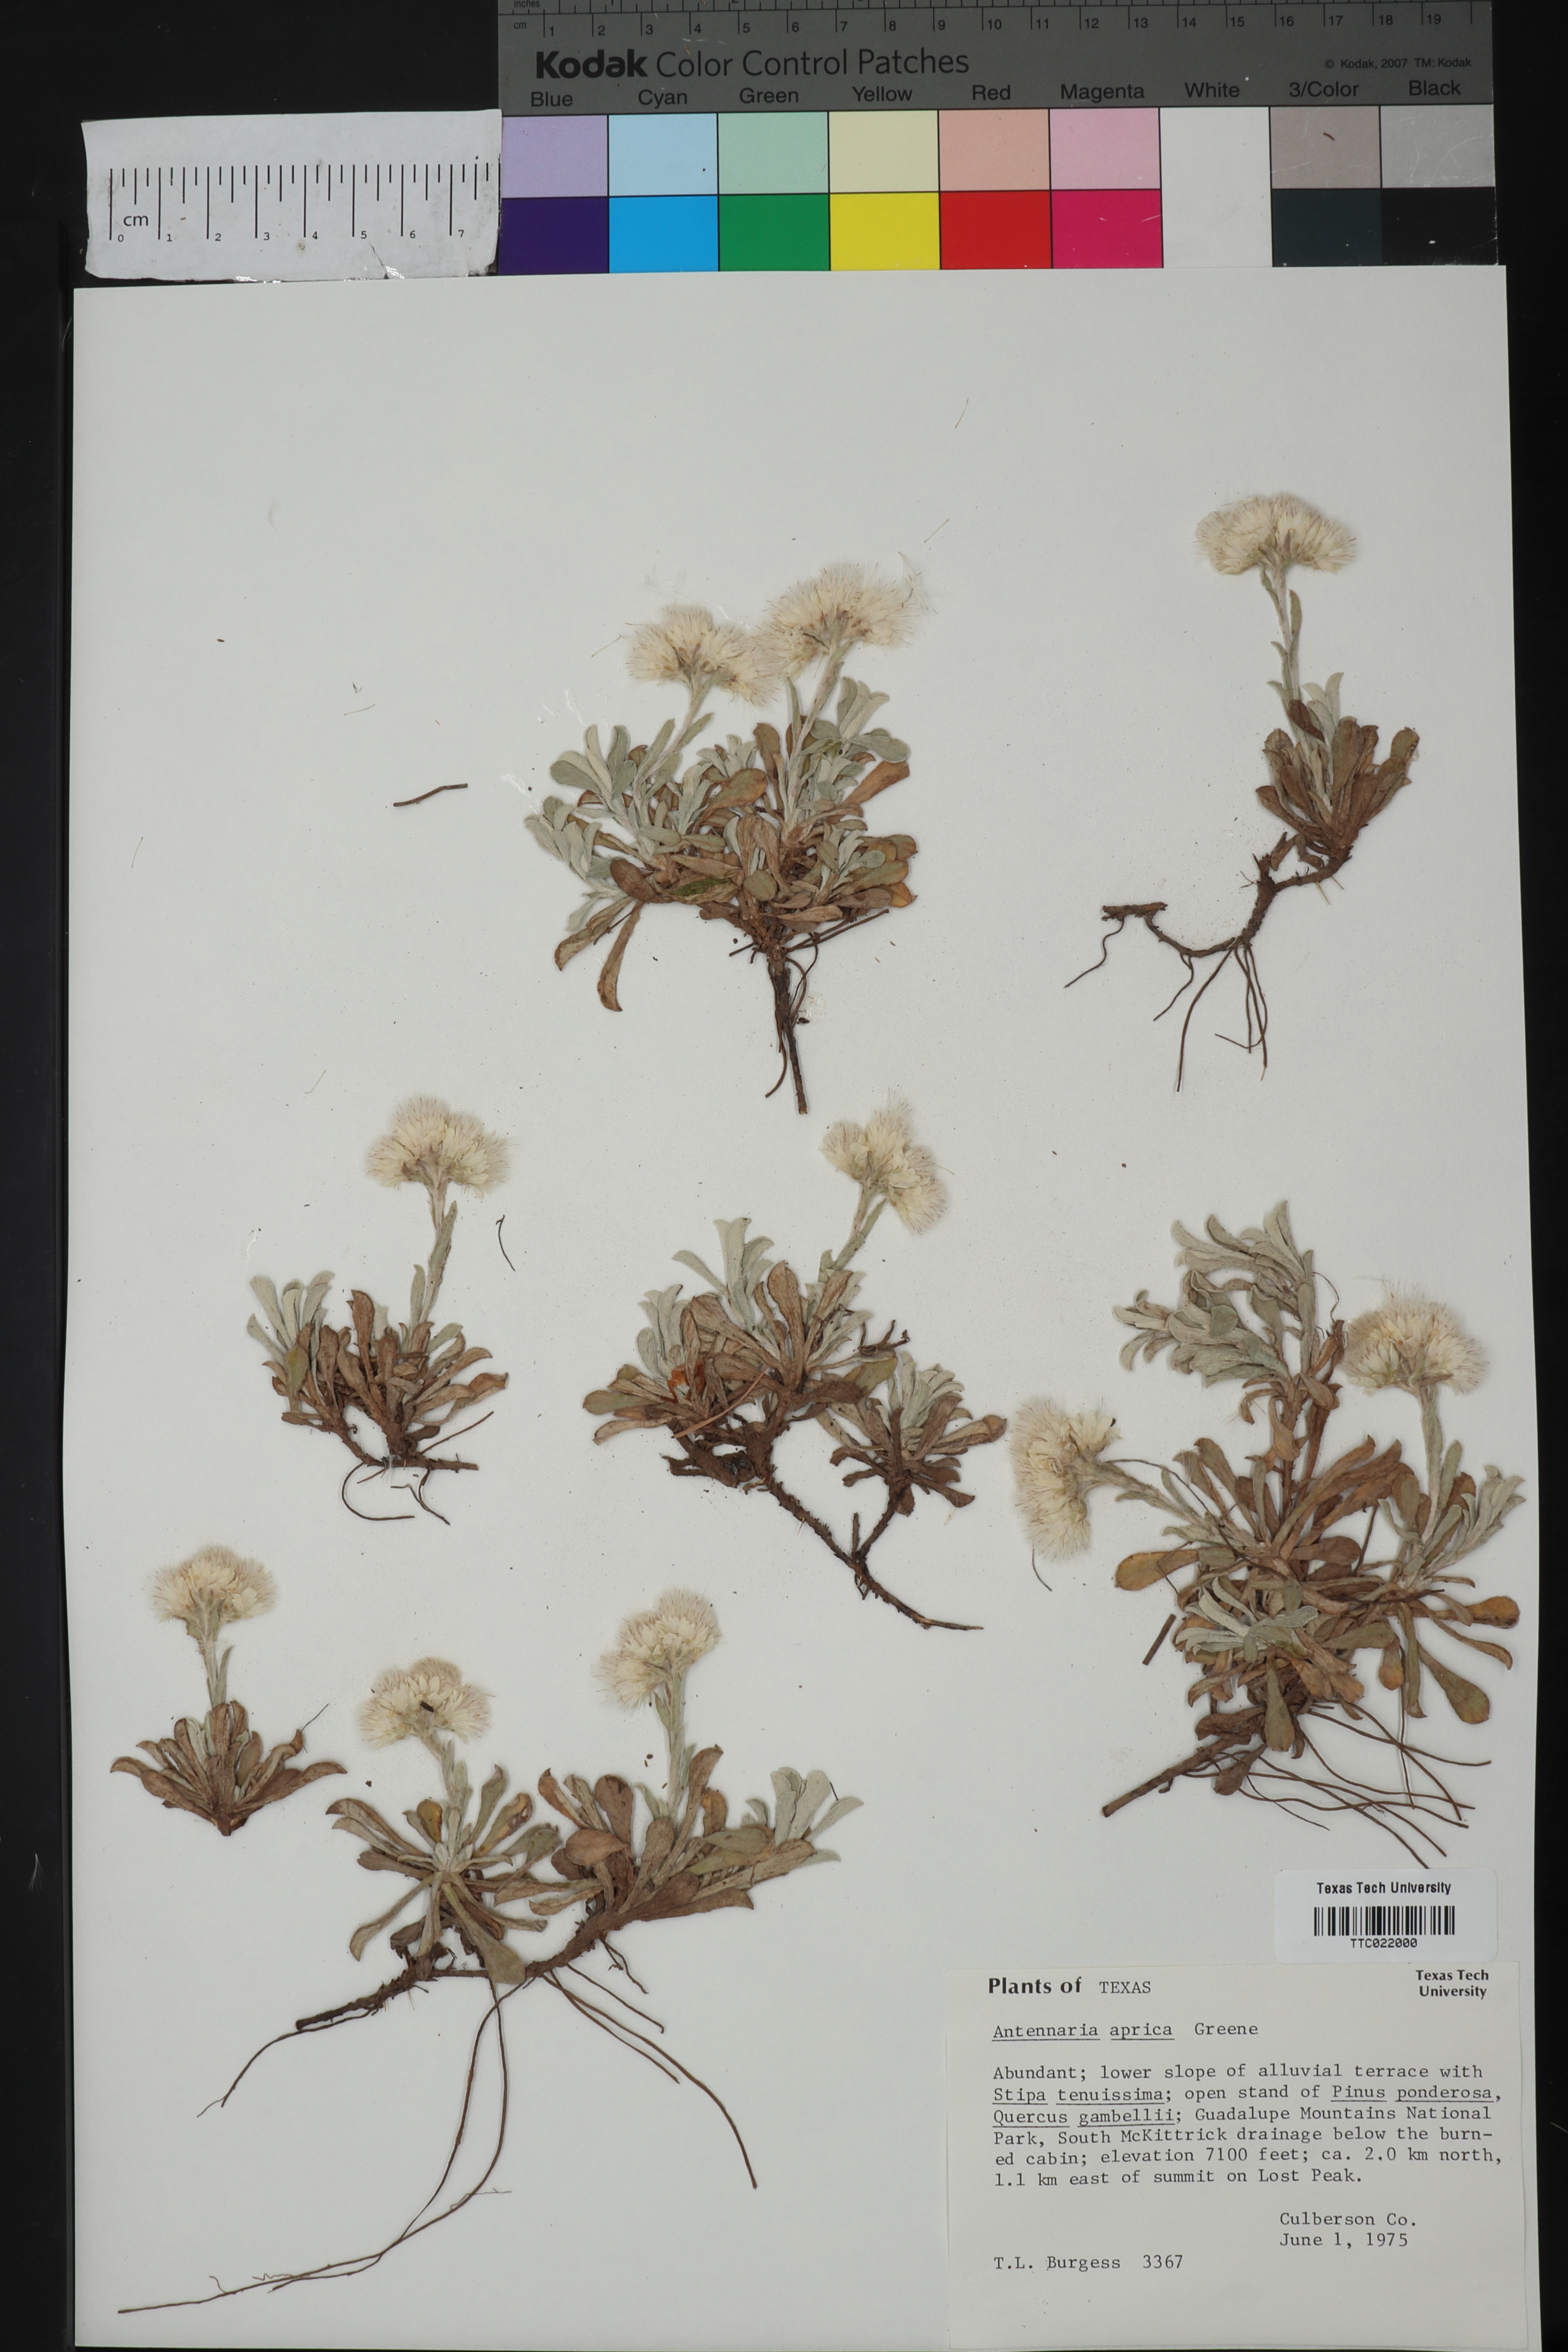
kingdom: Plantae
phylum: Tracheophyta
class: Magnoliopsida
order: Asterales
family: Asteraceae
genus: Antennaria
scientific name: Antennaria parvifolia
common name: Nuttall's pussytoes
